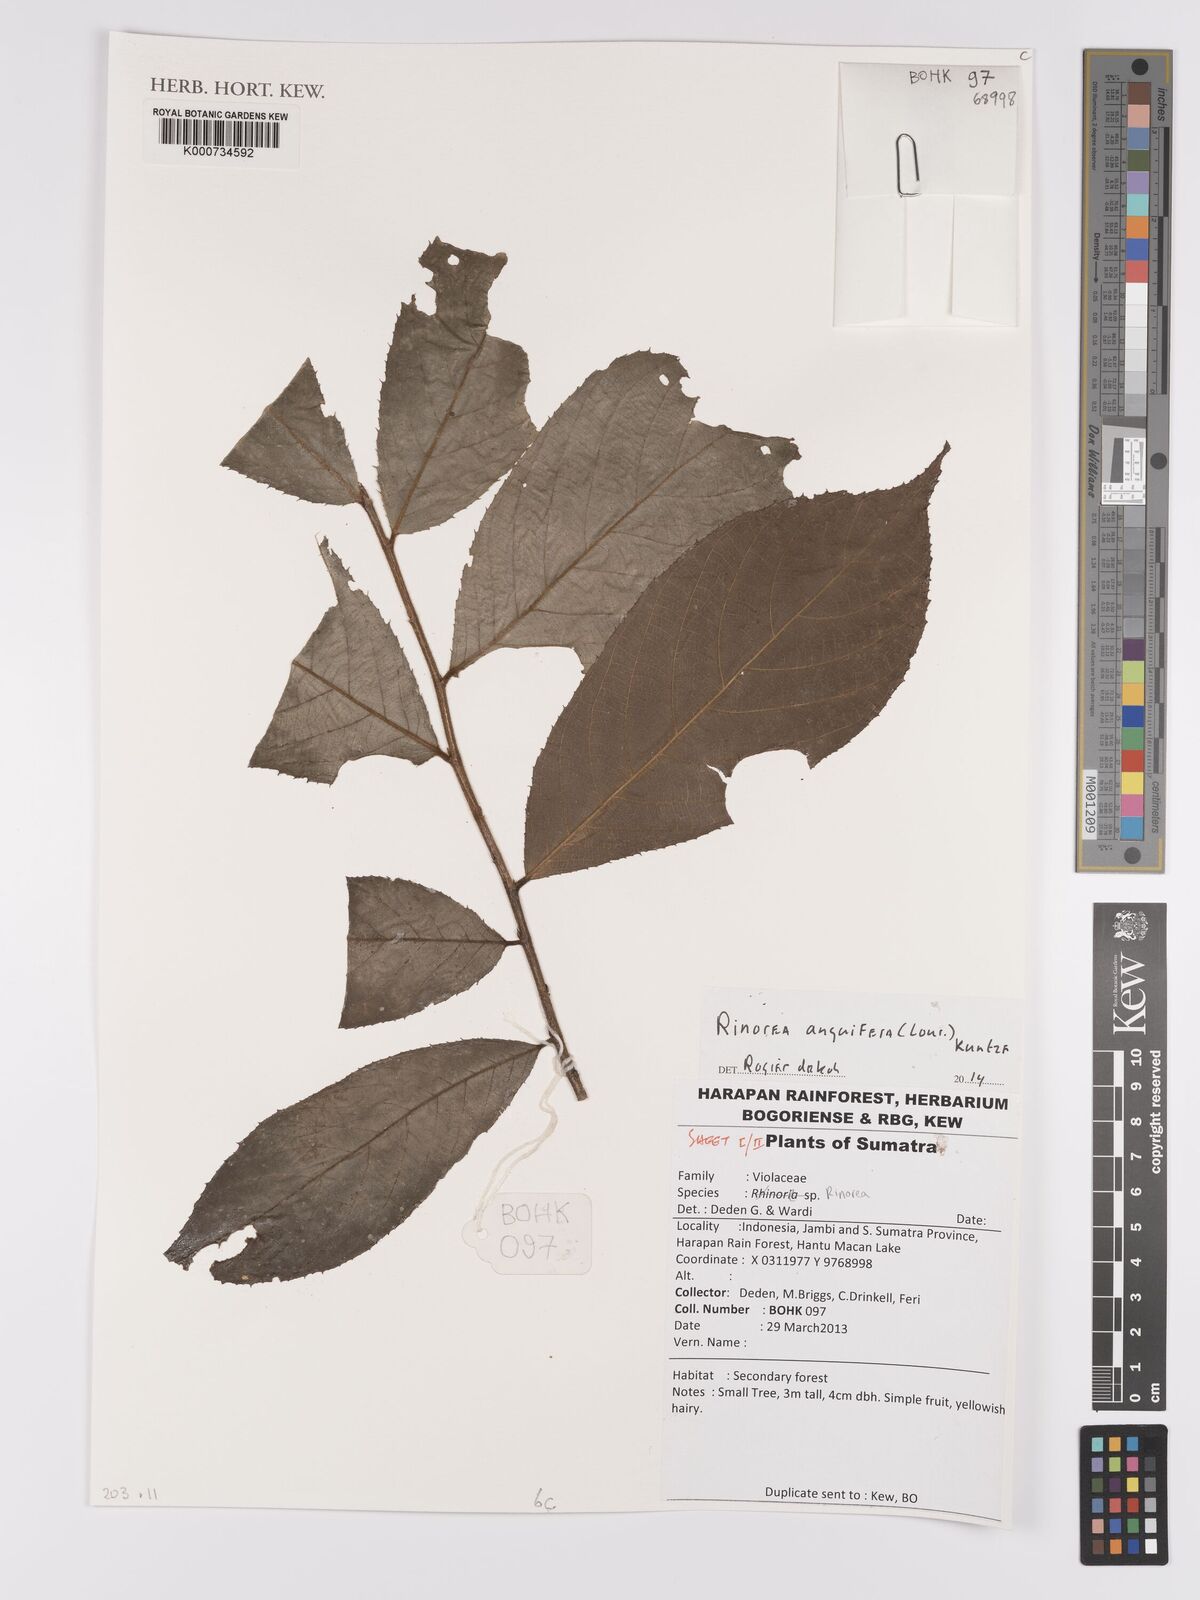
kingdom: Plantae
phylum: Tracheophyta
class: Magnoliopsida
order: Malpighiales
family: Violaceae
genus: Rinorea
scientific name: Rinorea anguifera
